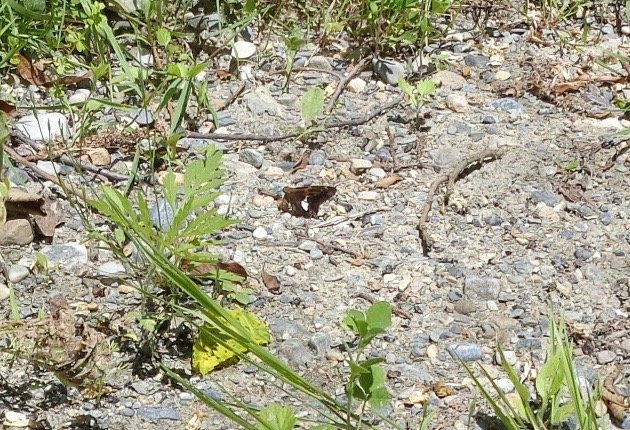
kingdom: Animalia
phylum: Arthropoda
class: Insecta
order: Lepidoptera
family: Hesperiidae
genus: Epargyreus
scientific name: Epargyreus clarus
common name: Silver-spotted Skipper
